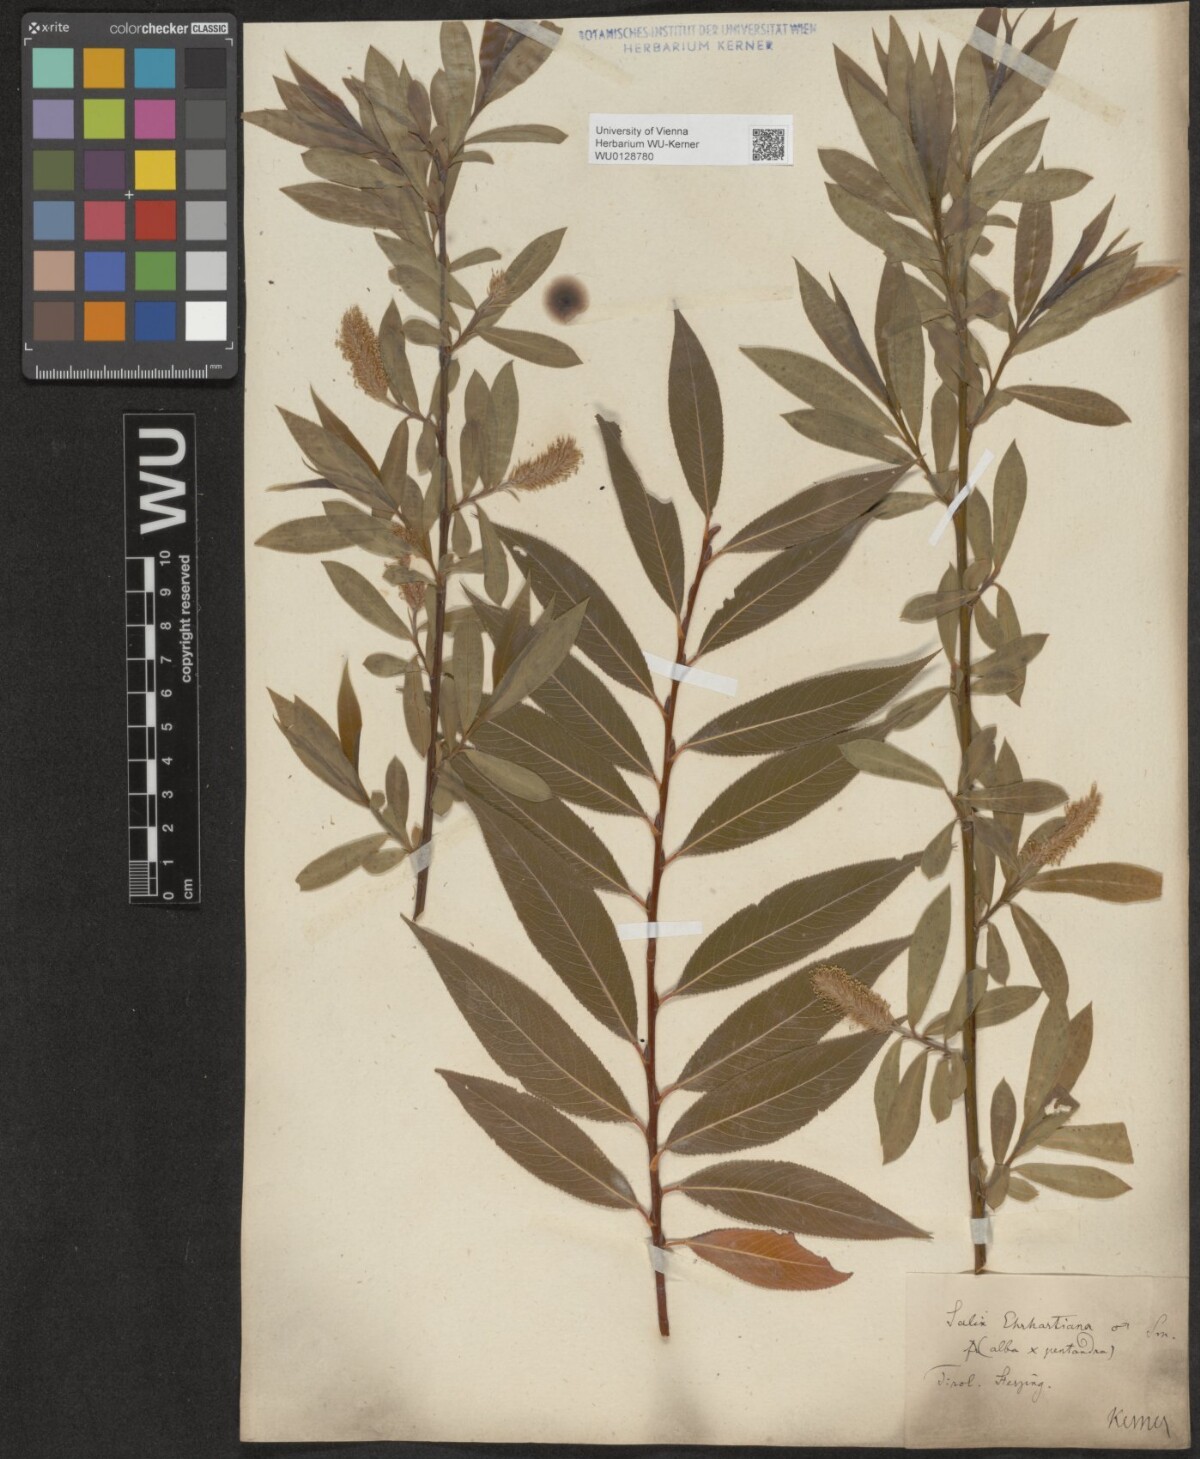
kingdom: Plantae
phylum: Tracheophyta
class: Magnoliopsida
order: Malpighiales
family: Salicaceae
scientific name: Salicaceae
